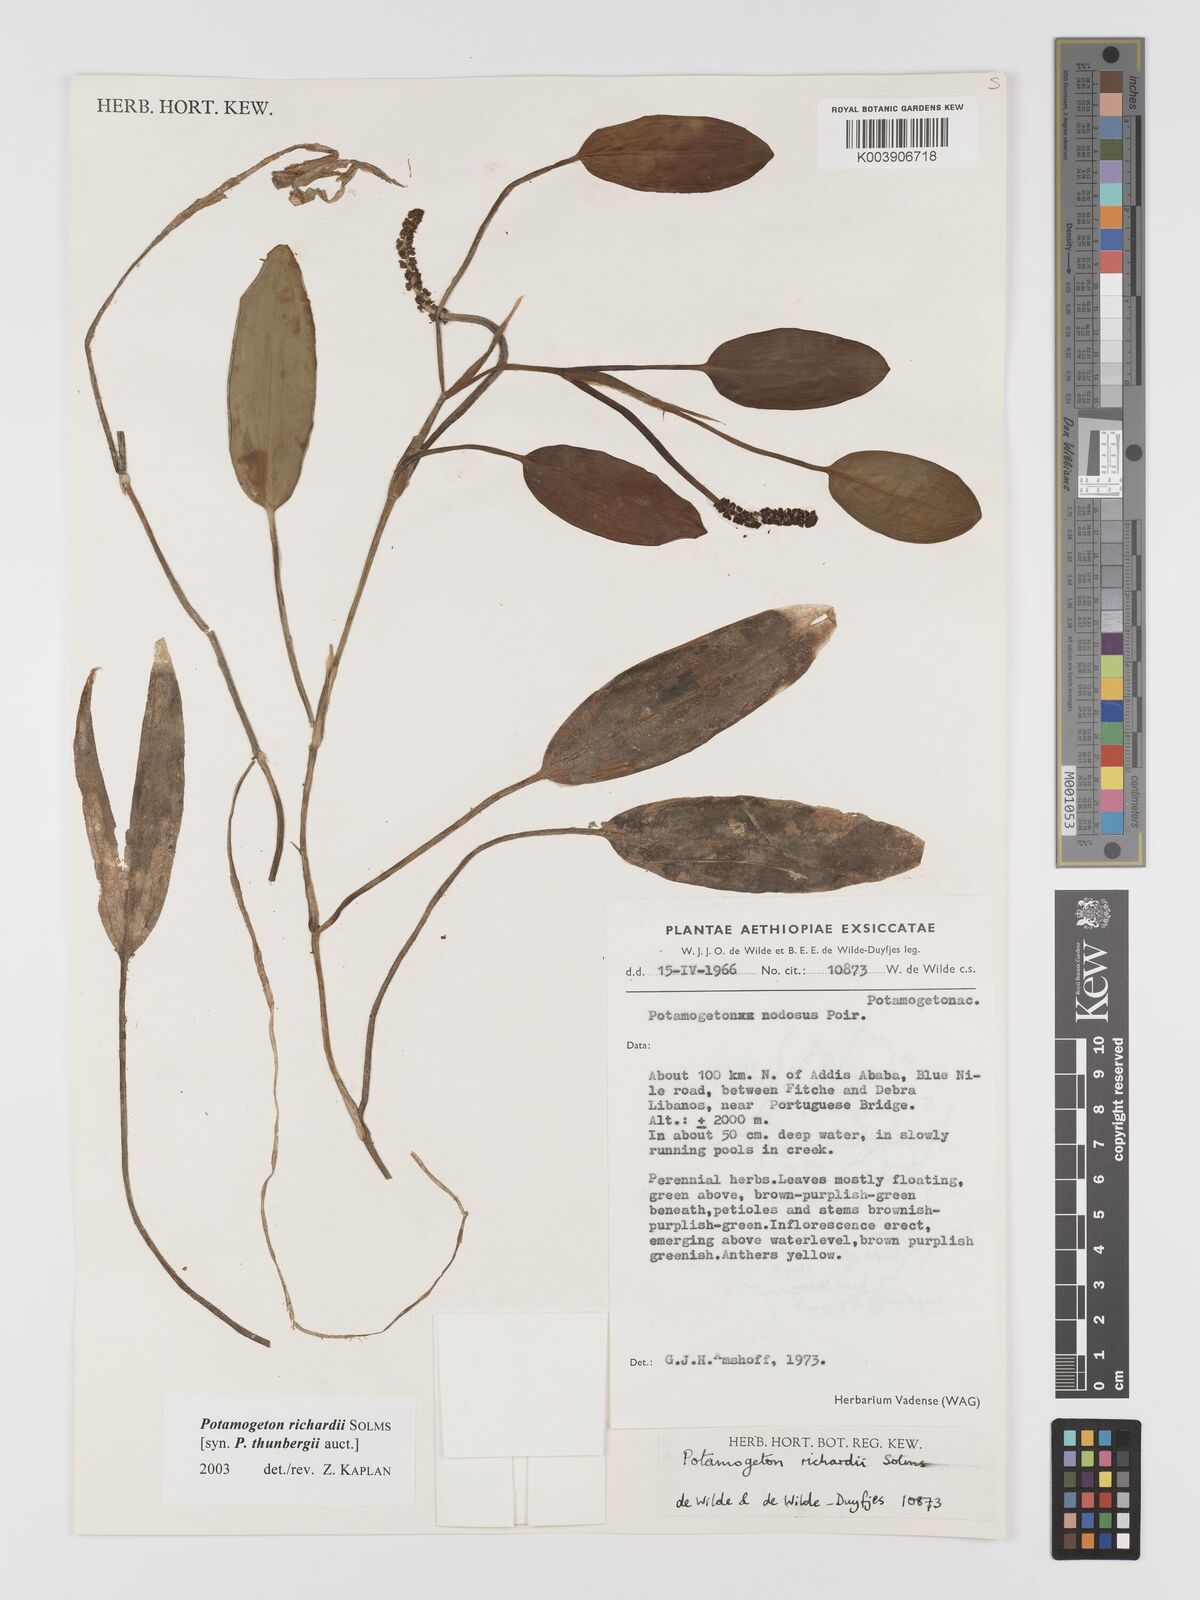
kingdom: Plantae
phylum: Tracheophyta
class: Liliopsida
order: Alismatales
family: Potamogetonaceae
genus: Potamogeton
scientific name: Potamogeton nodosus
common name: Loddon pondweed
